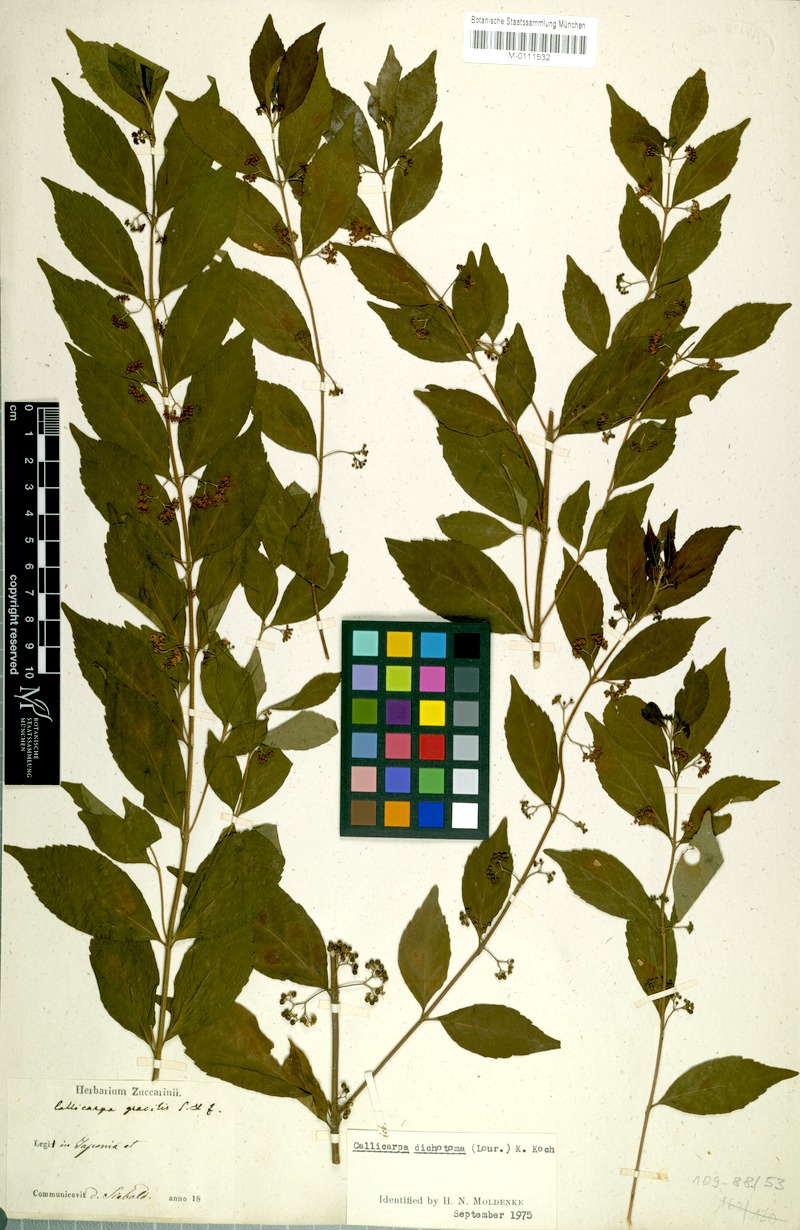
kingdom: Plantae
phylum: Tracheophyta
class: Magnoliopsida
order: Lamiales
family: Lamiaceae
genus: Callicarpa
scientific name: Callicarpa dichotoma
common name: Purple beauty-berry
